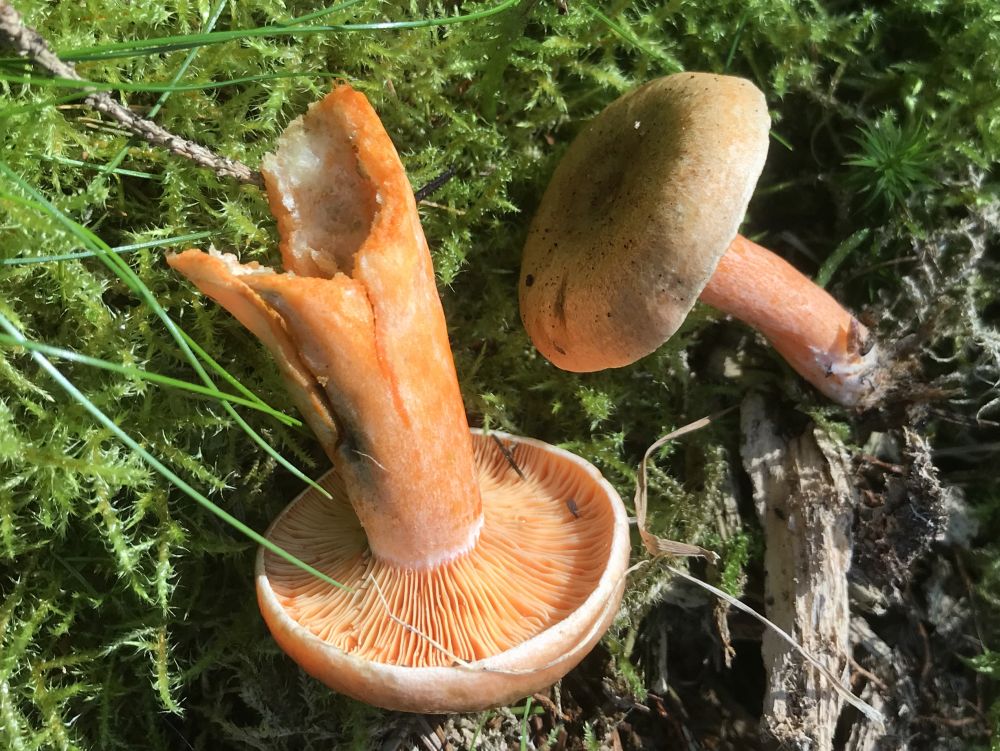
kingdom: Fungi
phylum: Basidiomycota
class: Agaricomycetes
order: Russulales
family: Russulaceae
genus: Lactarius
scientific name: Lactarius deterrimus
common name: gran-mælkehat
